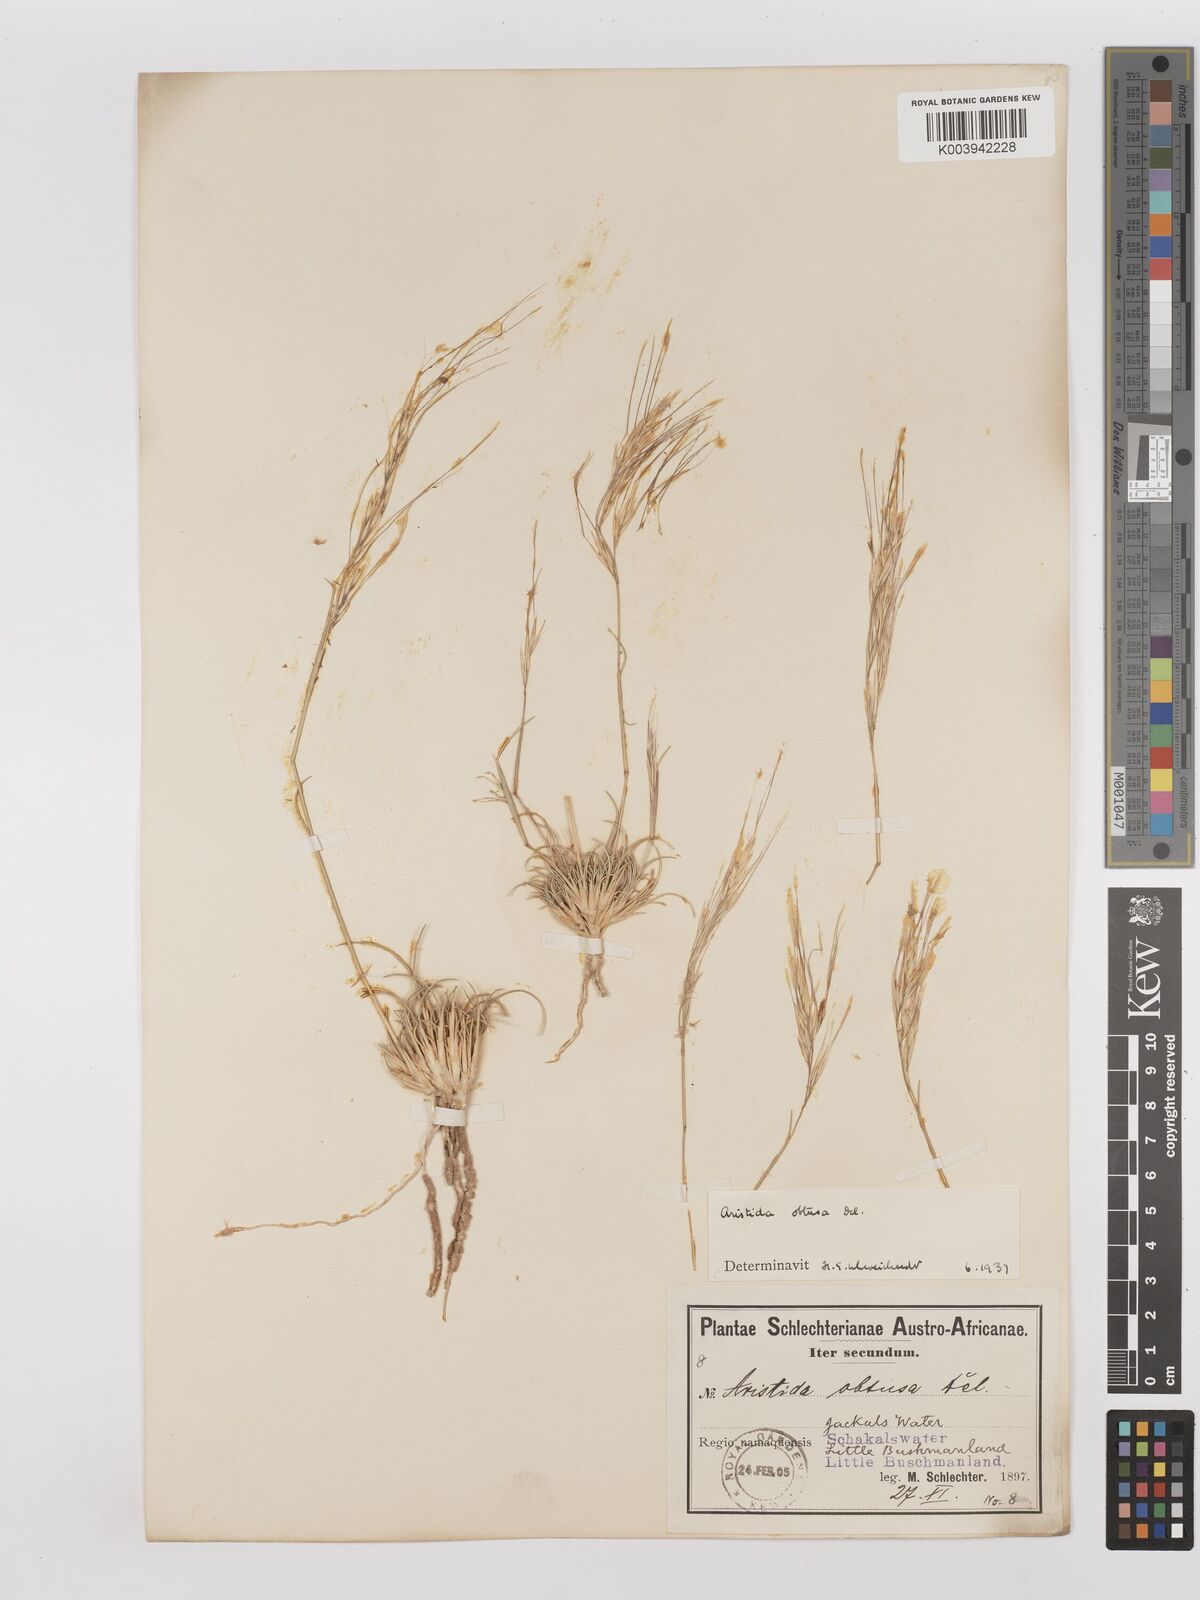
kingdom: Plantae
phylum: Tracheophyta
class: Liliopsida
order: Poales
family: Poaceae
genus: Stipagrostis
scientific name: Stipagrostis obtusa
